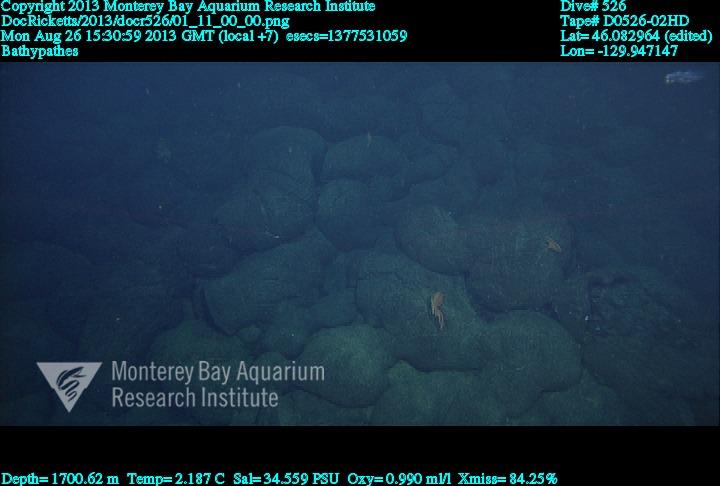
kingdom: Animalia
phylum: Cnidaria
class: Anthozoa
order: Antipatharia
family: Schizopathidae
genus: Bathypathes
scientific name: Bathypathes
